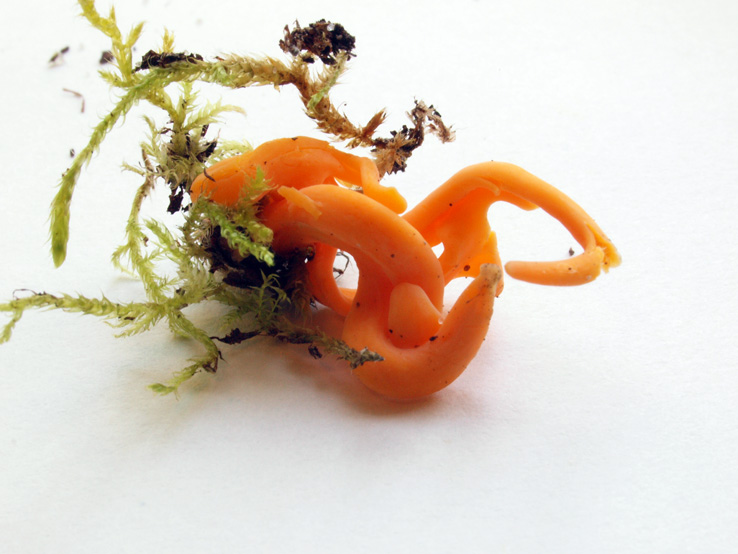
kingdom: Fungi
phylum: Basidiomycota
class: Agaricomycetes
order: Agaricales
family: Clavariaceae
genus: Clavulinopsis
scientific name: Clavulinopsis luteoalba
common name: abrikos-køllesvamp
